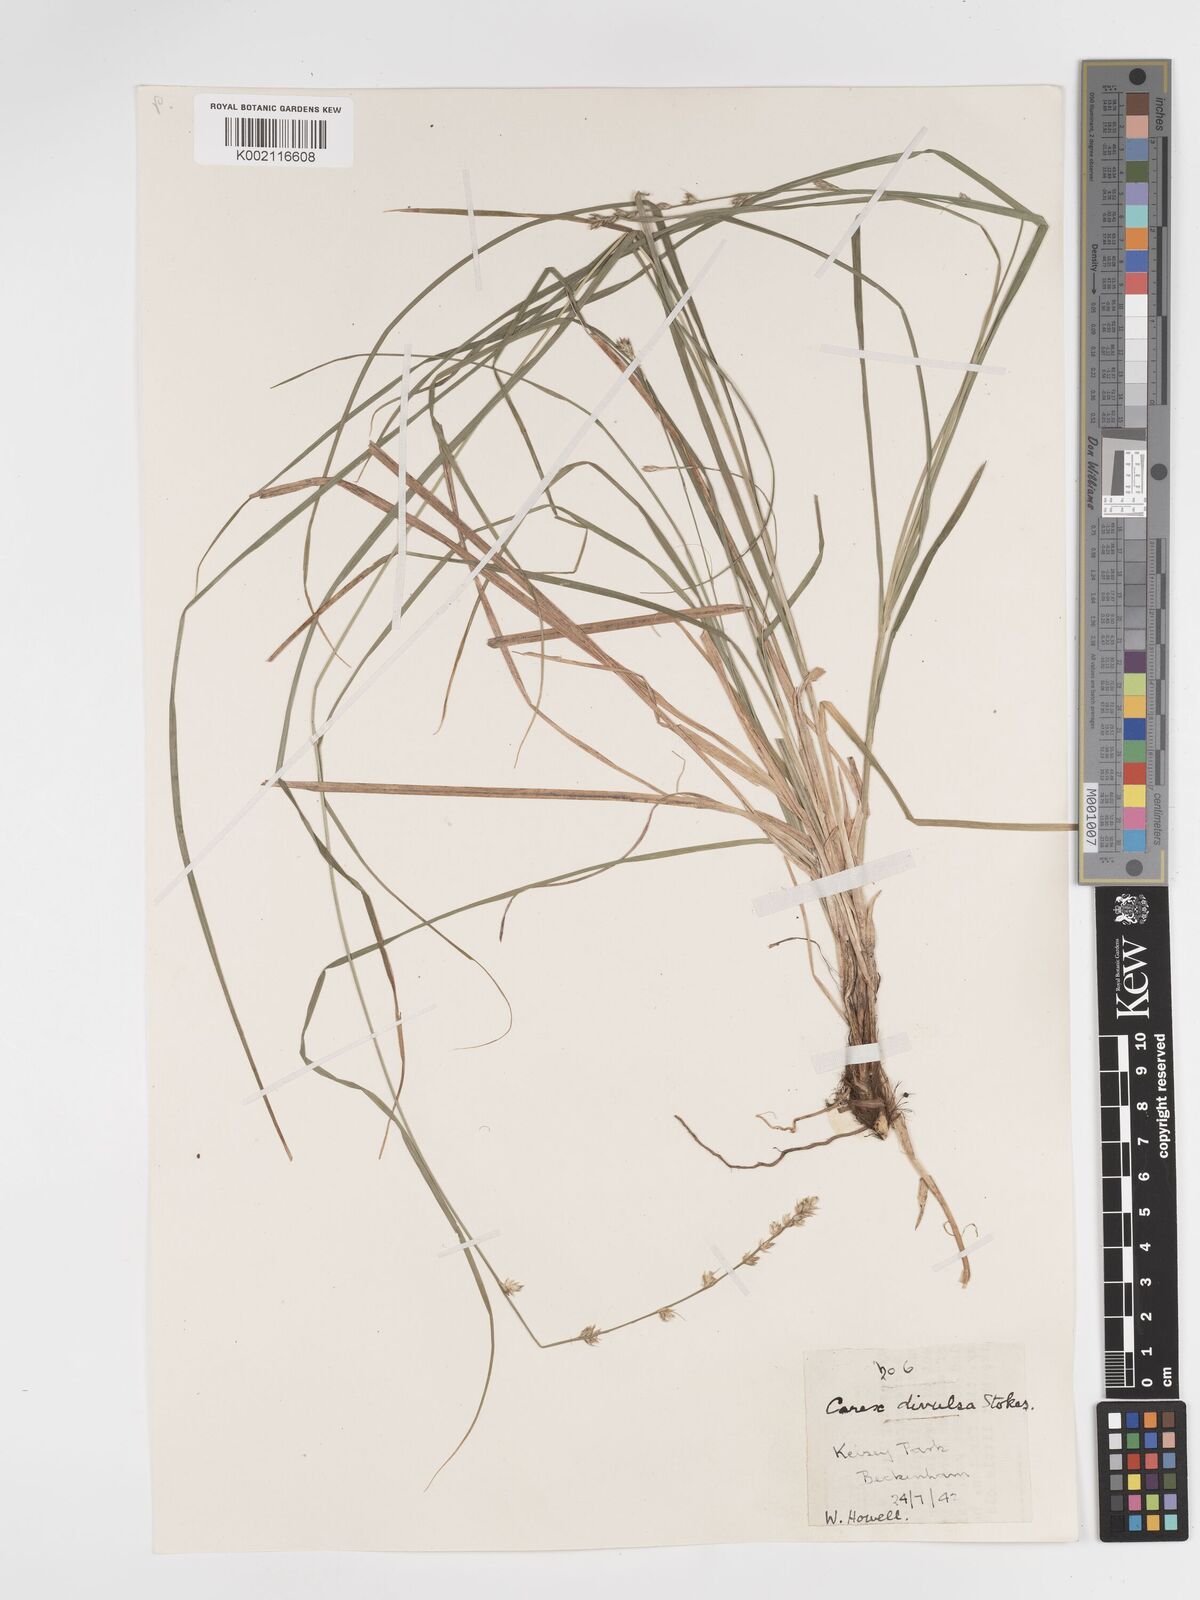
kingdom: Plantae
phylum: Tracheophyta
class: Liliopsida
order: Poales
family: Cyperaceae
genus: Carex
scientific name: Carex divulsa
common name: Grassland sedge
